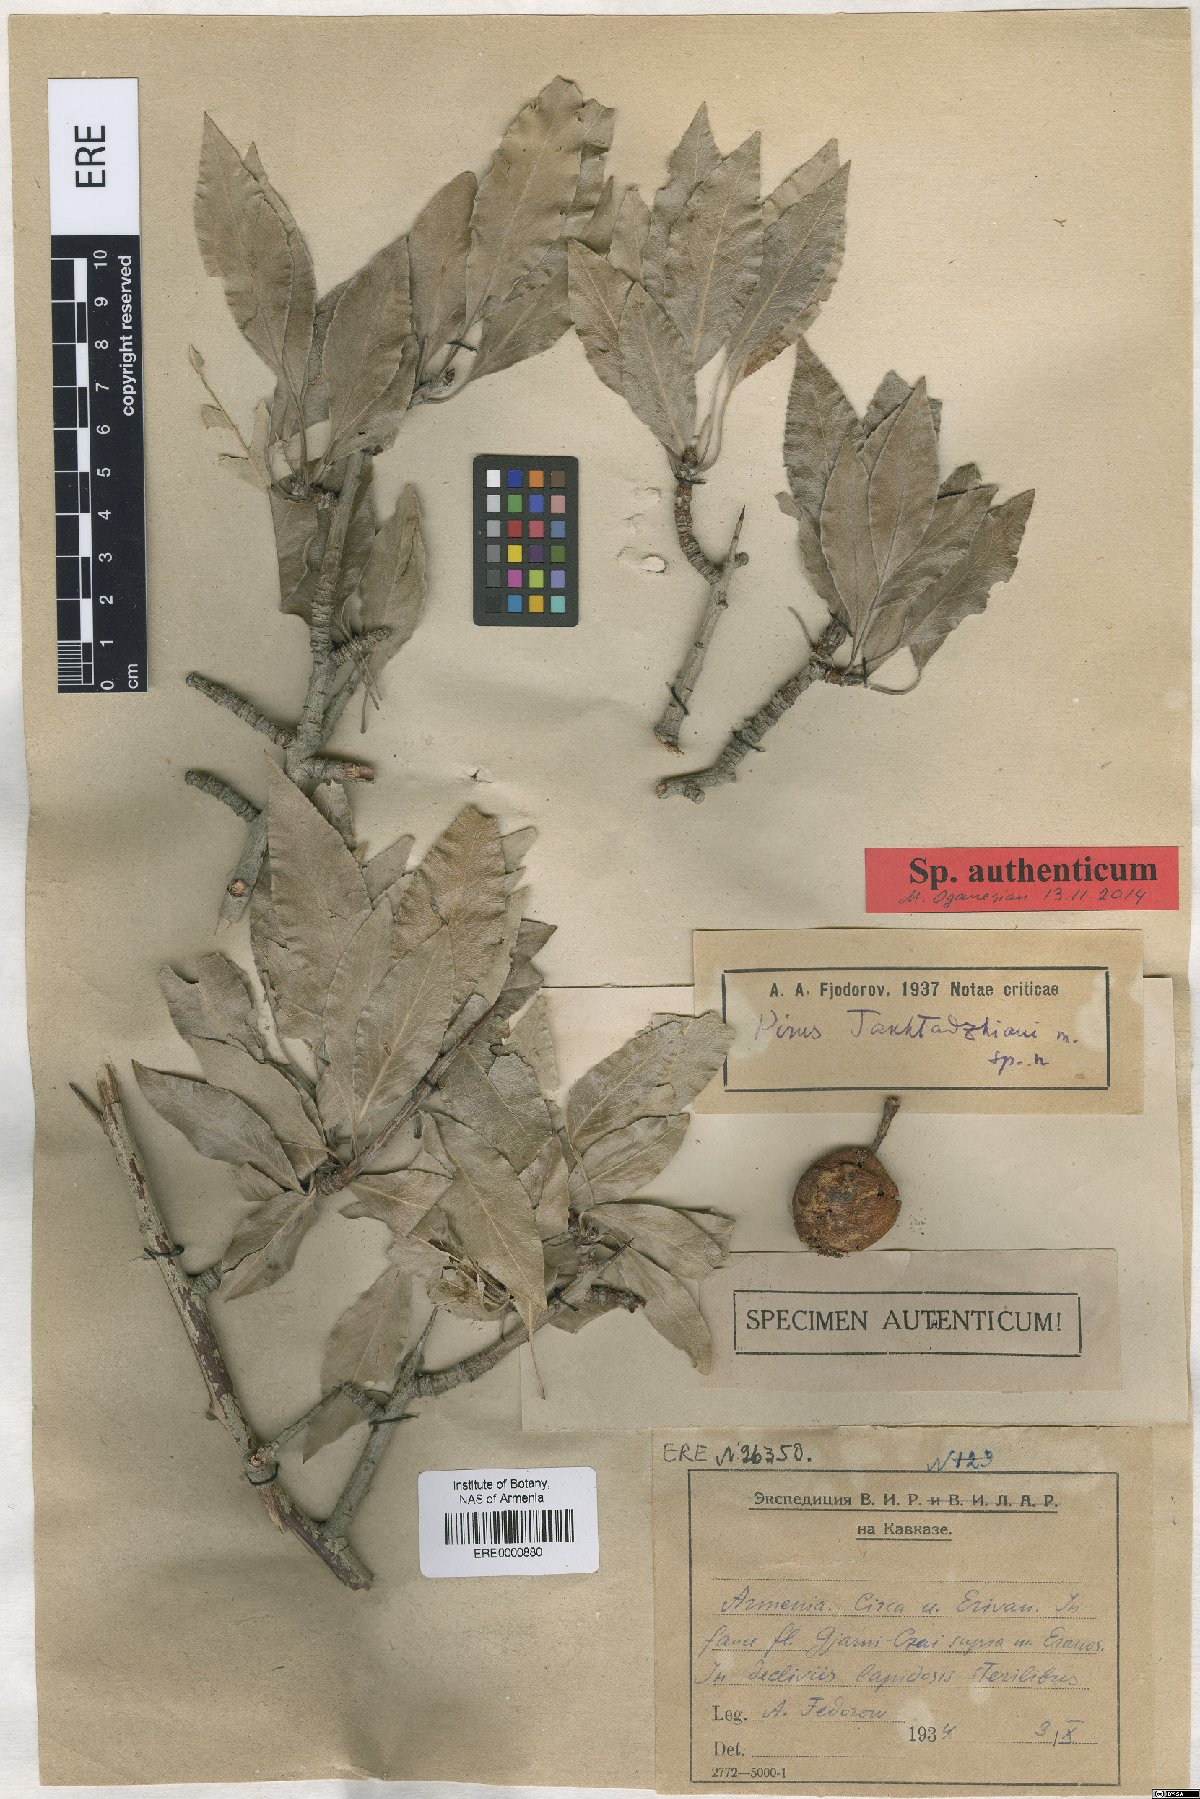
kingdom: Plantae
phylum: Tracheophyta
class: Magnoliopsida
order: Rosales
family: Rosaceae
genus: Pyrus
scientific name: Pyrus takhtadzhianii
